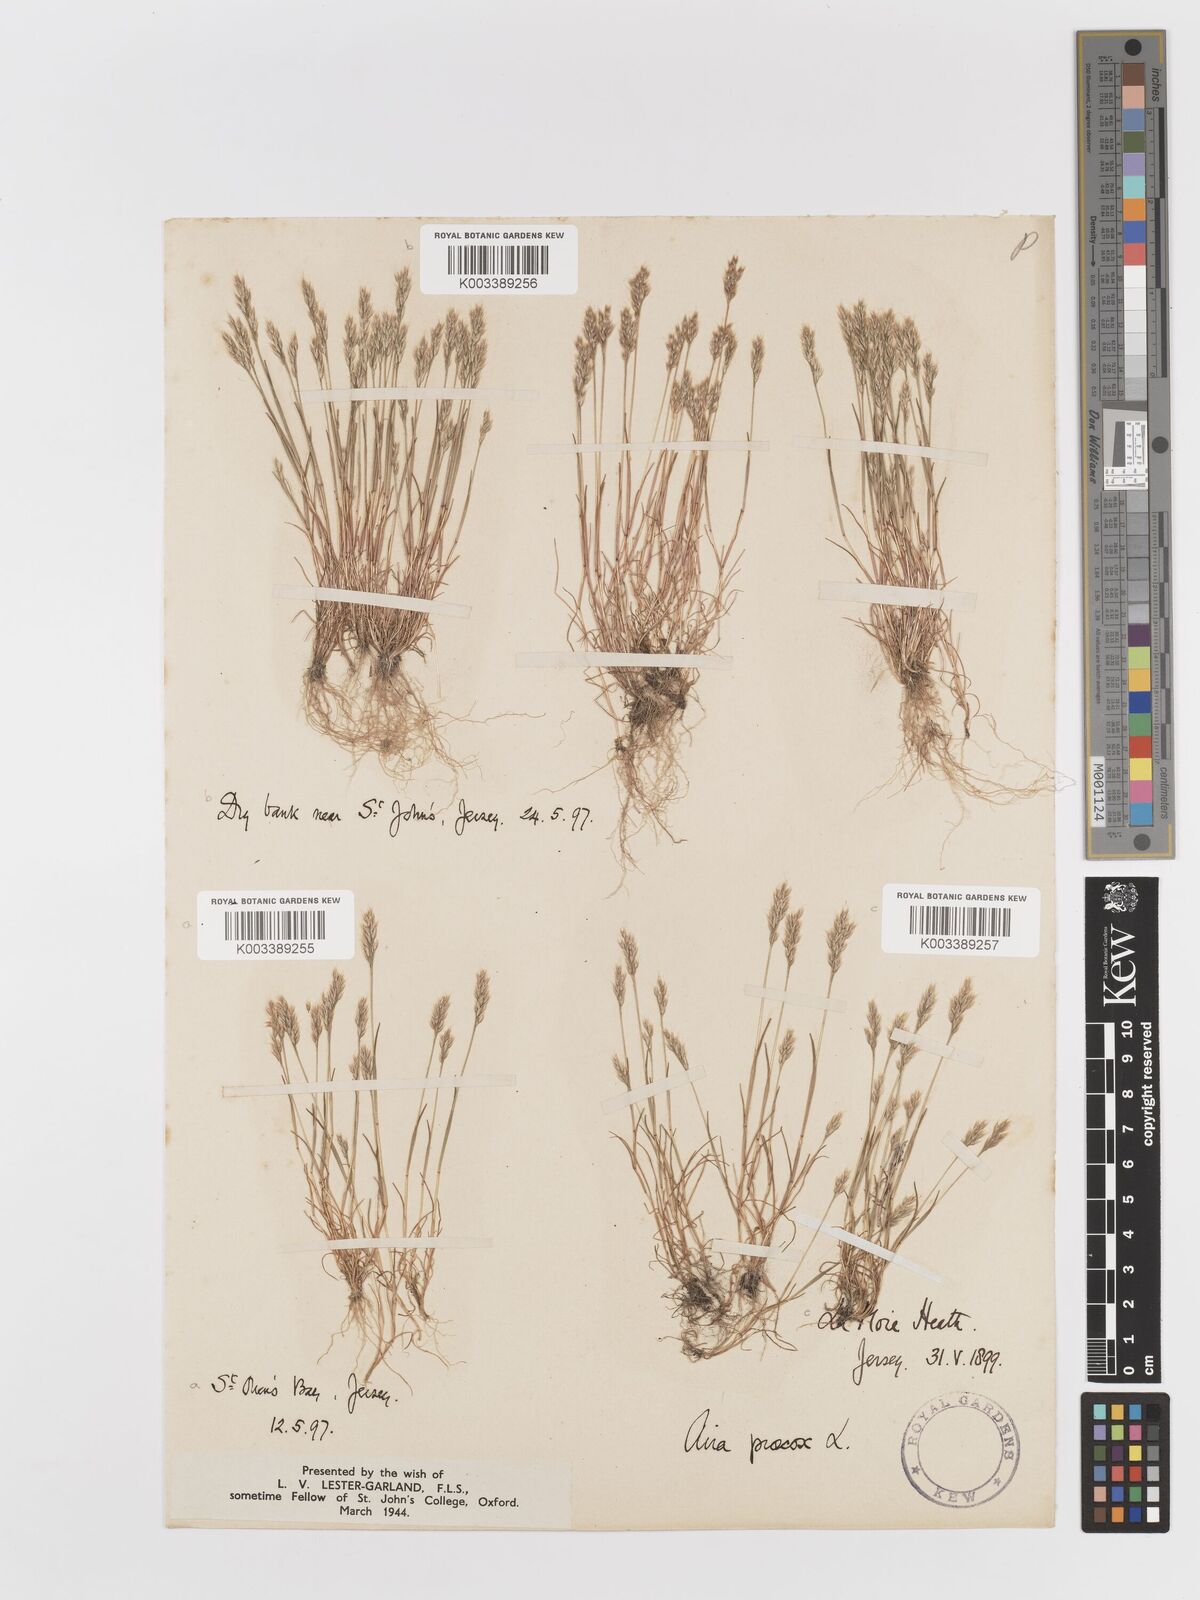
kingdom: Plantae
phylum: Tracheophyta
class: Liliopsida
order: Poales
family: Poaceae
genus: Aira
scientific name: Aira praecox
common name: Early hair-grass
